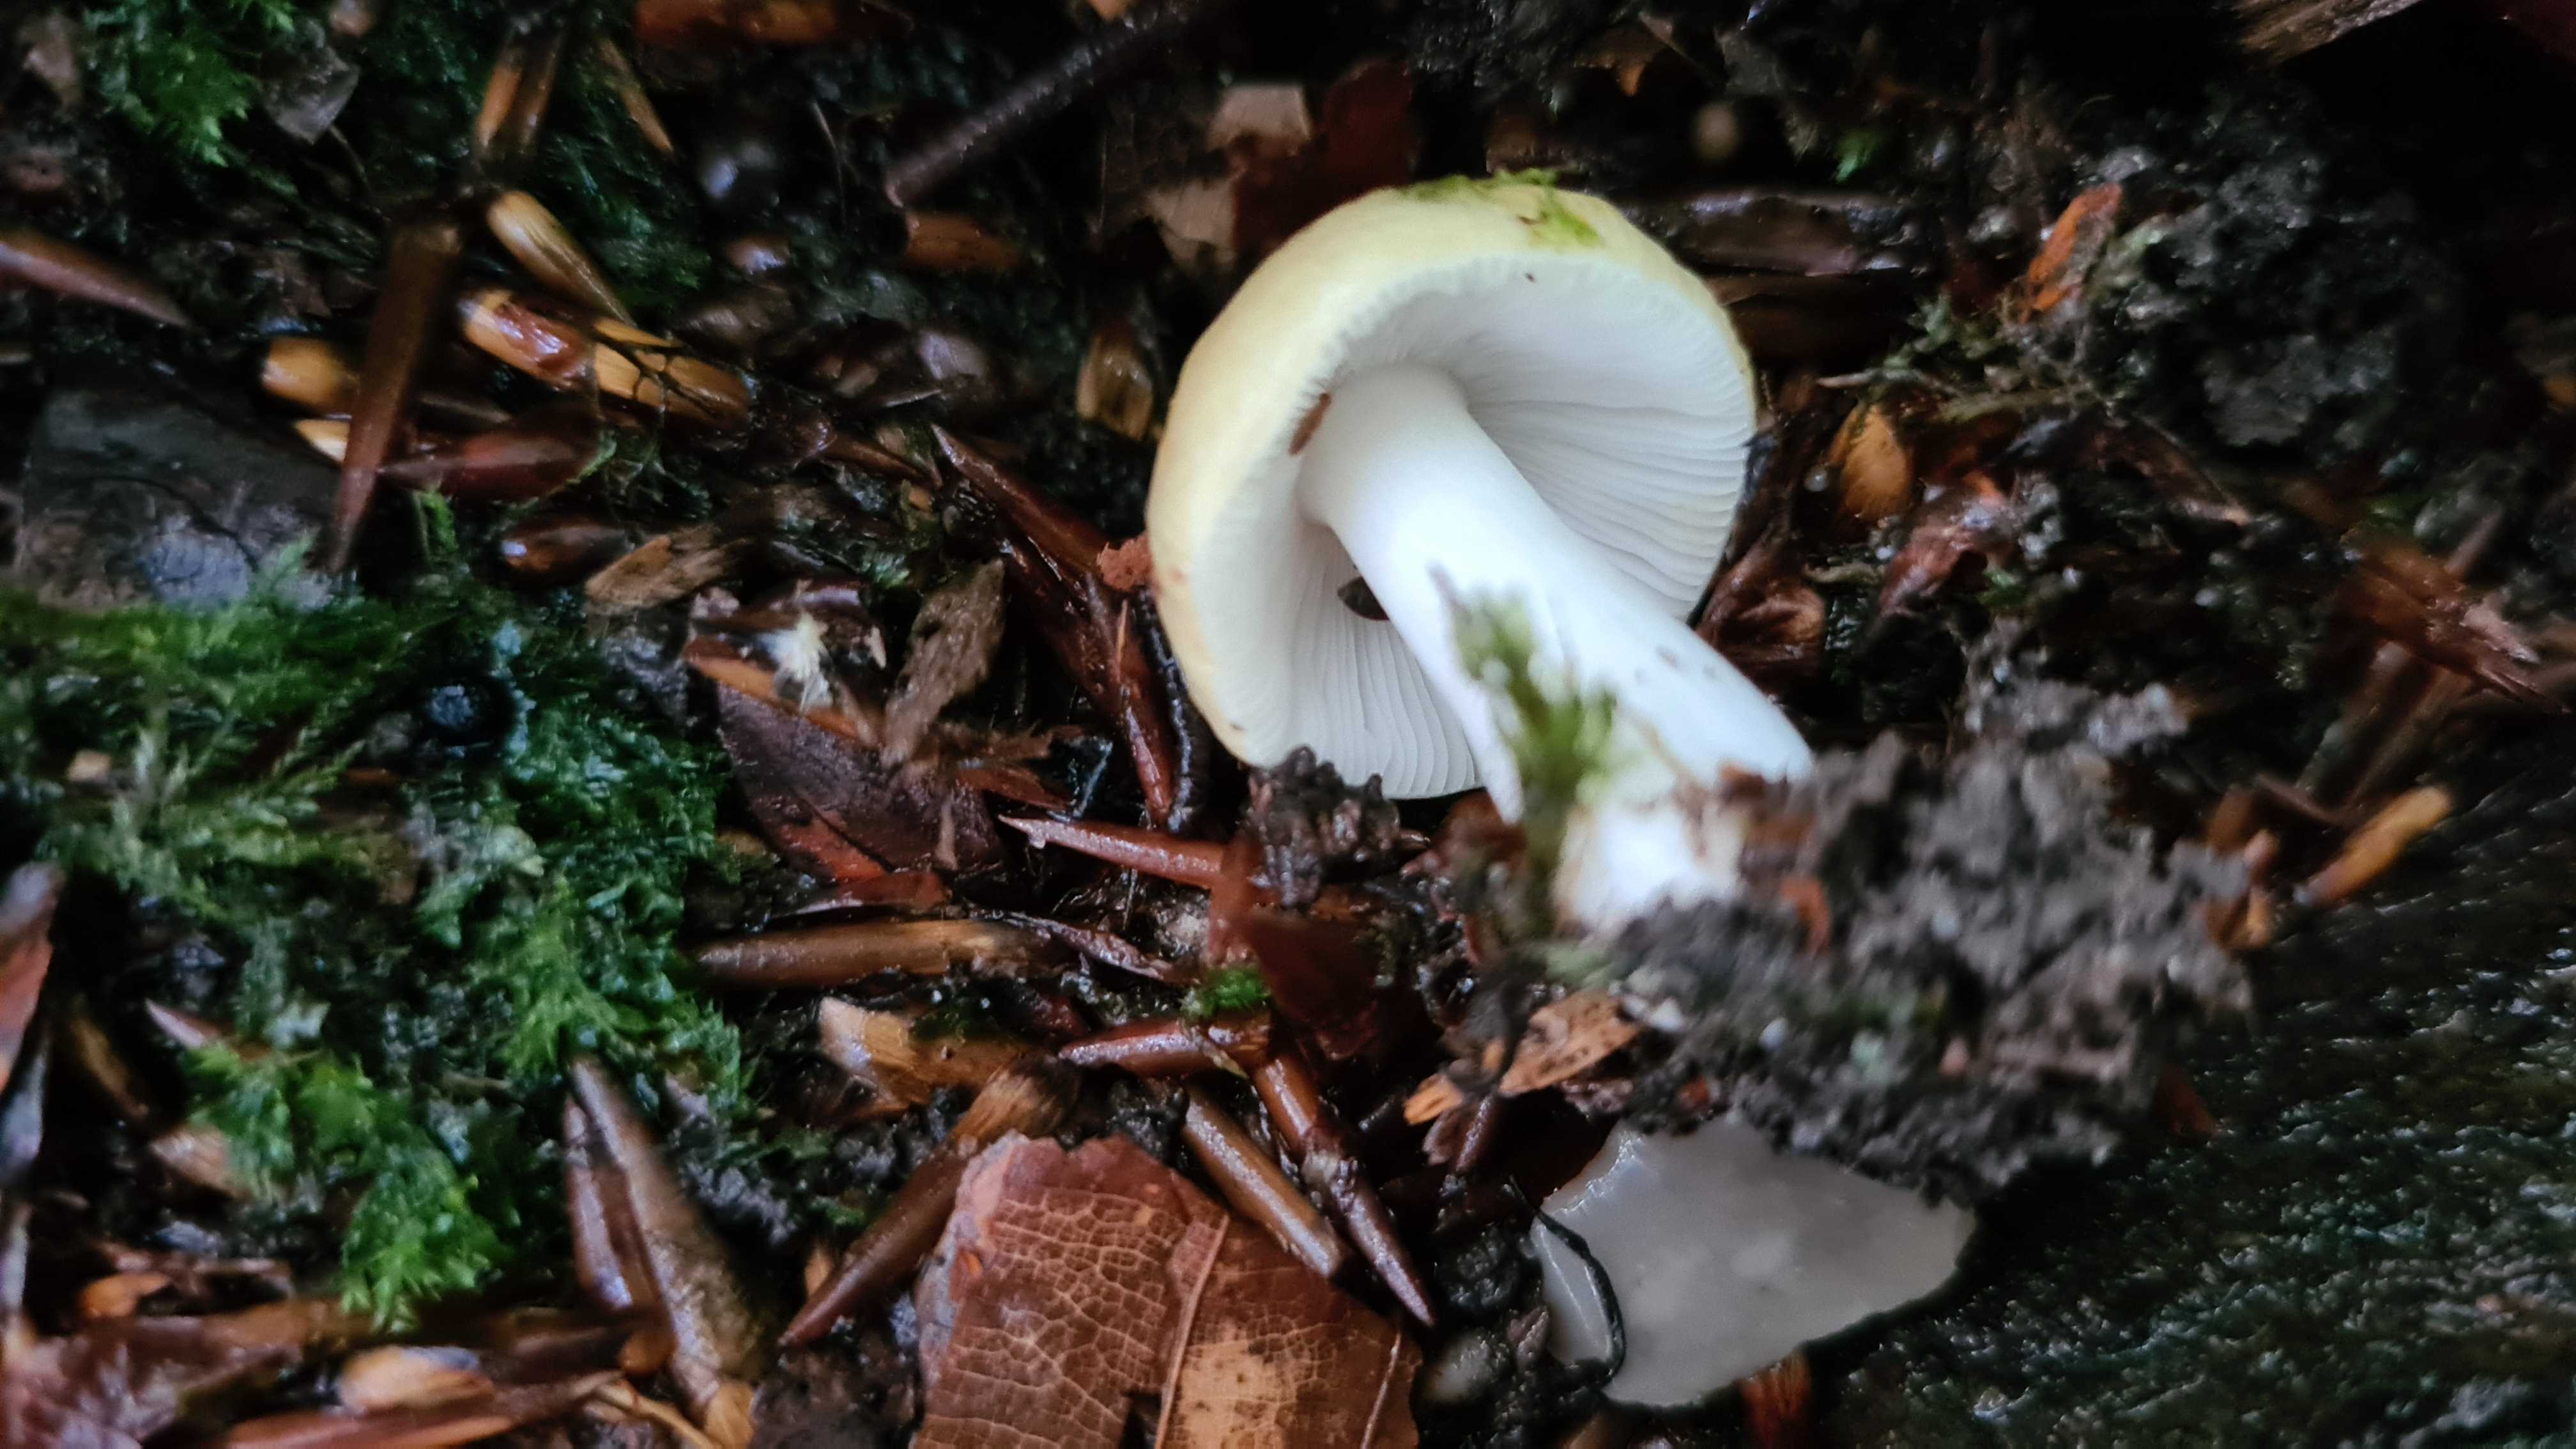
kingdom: Fungi
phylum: Basidiomycota
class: Agaricomycetes
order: Russulales
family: Russulaceae
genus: Russula
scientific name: Russula solaris
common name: sol-skørhat
